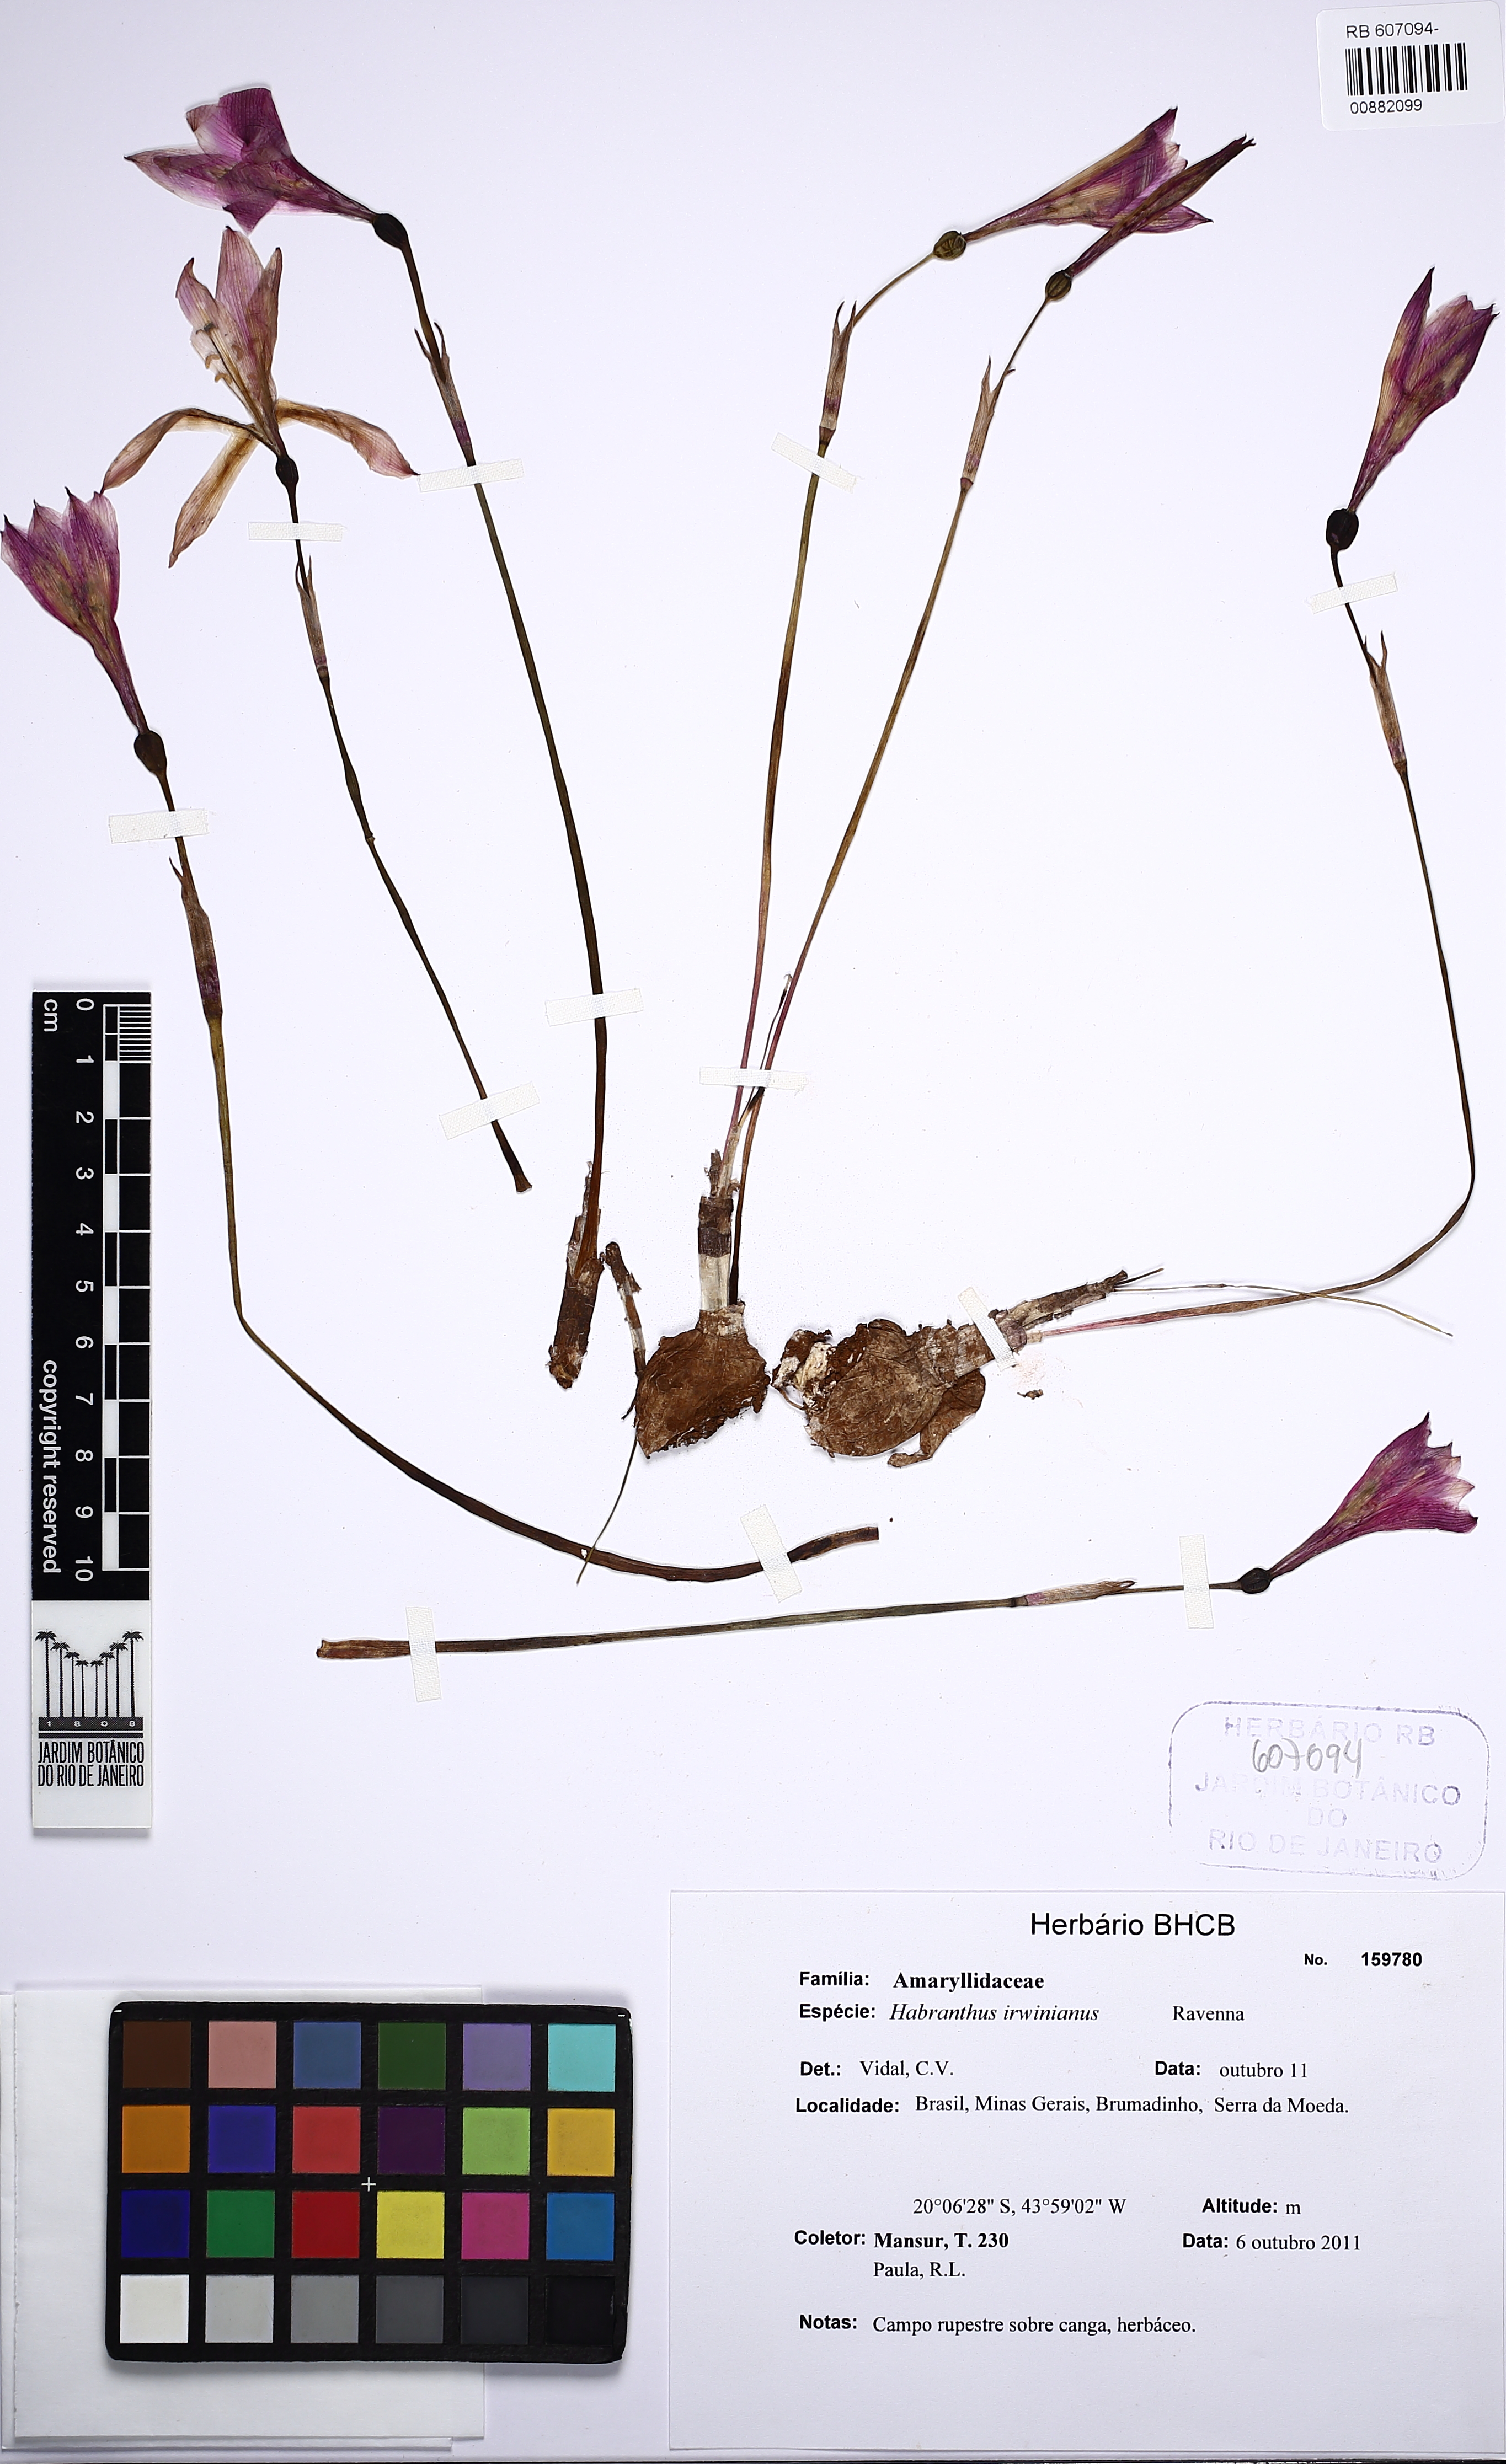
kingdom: Plantae
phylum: Tracheophyta
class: Liliopsida
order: Asparagales
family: Amaryllidaceae
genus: Zephyranthes
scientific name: Zephyranthes irwiniana
